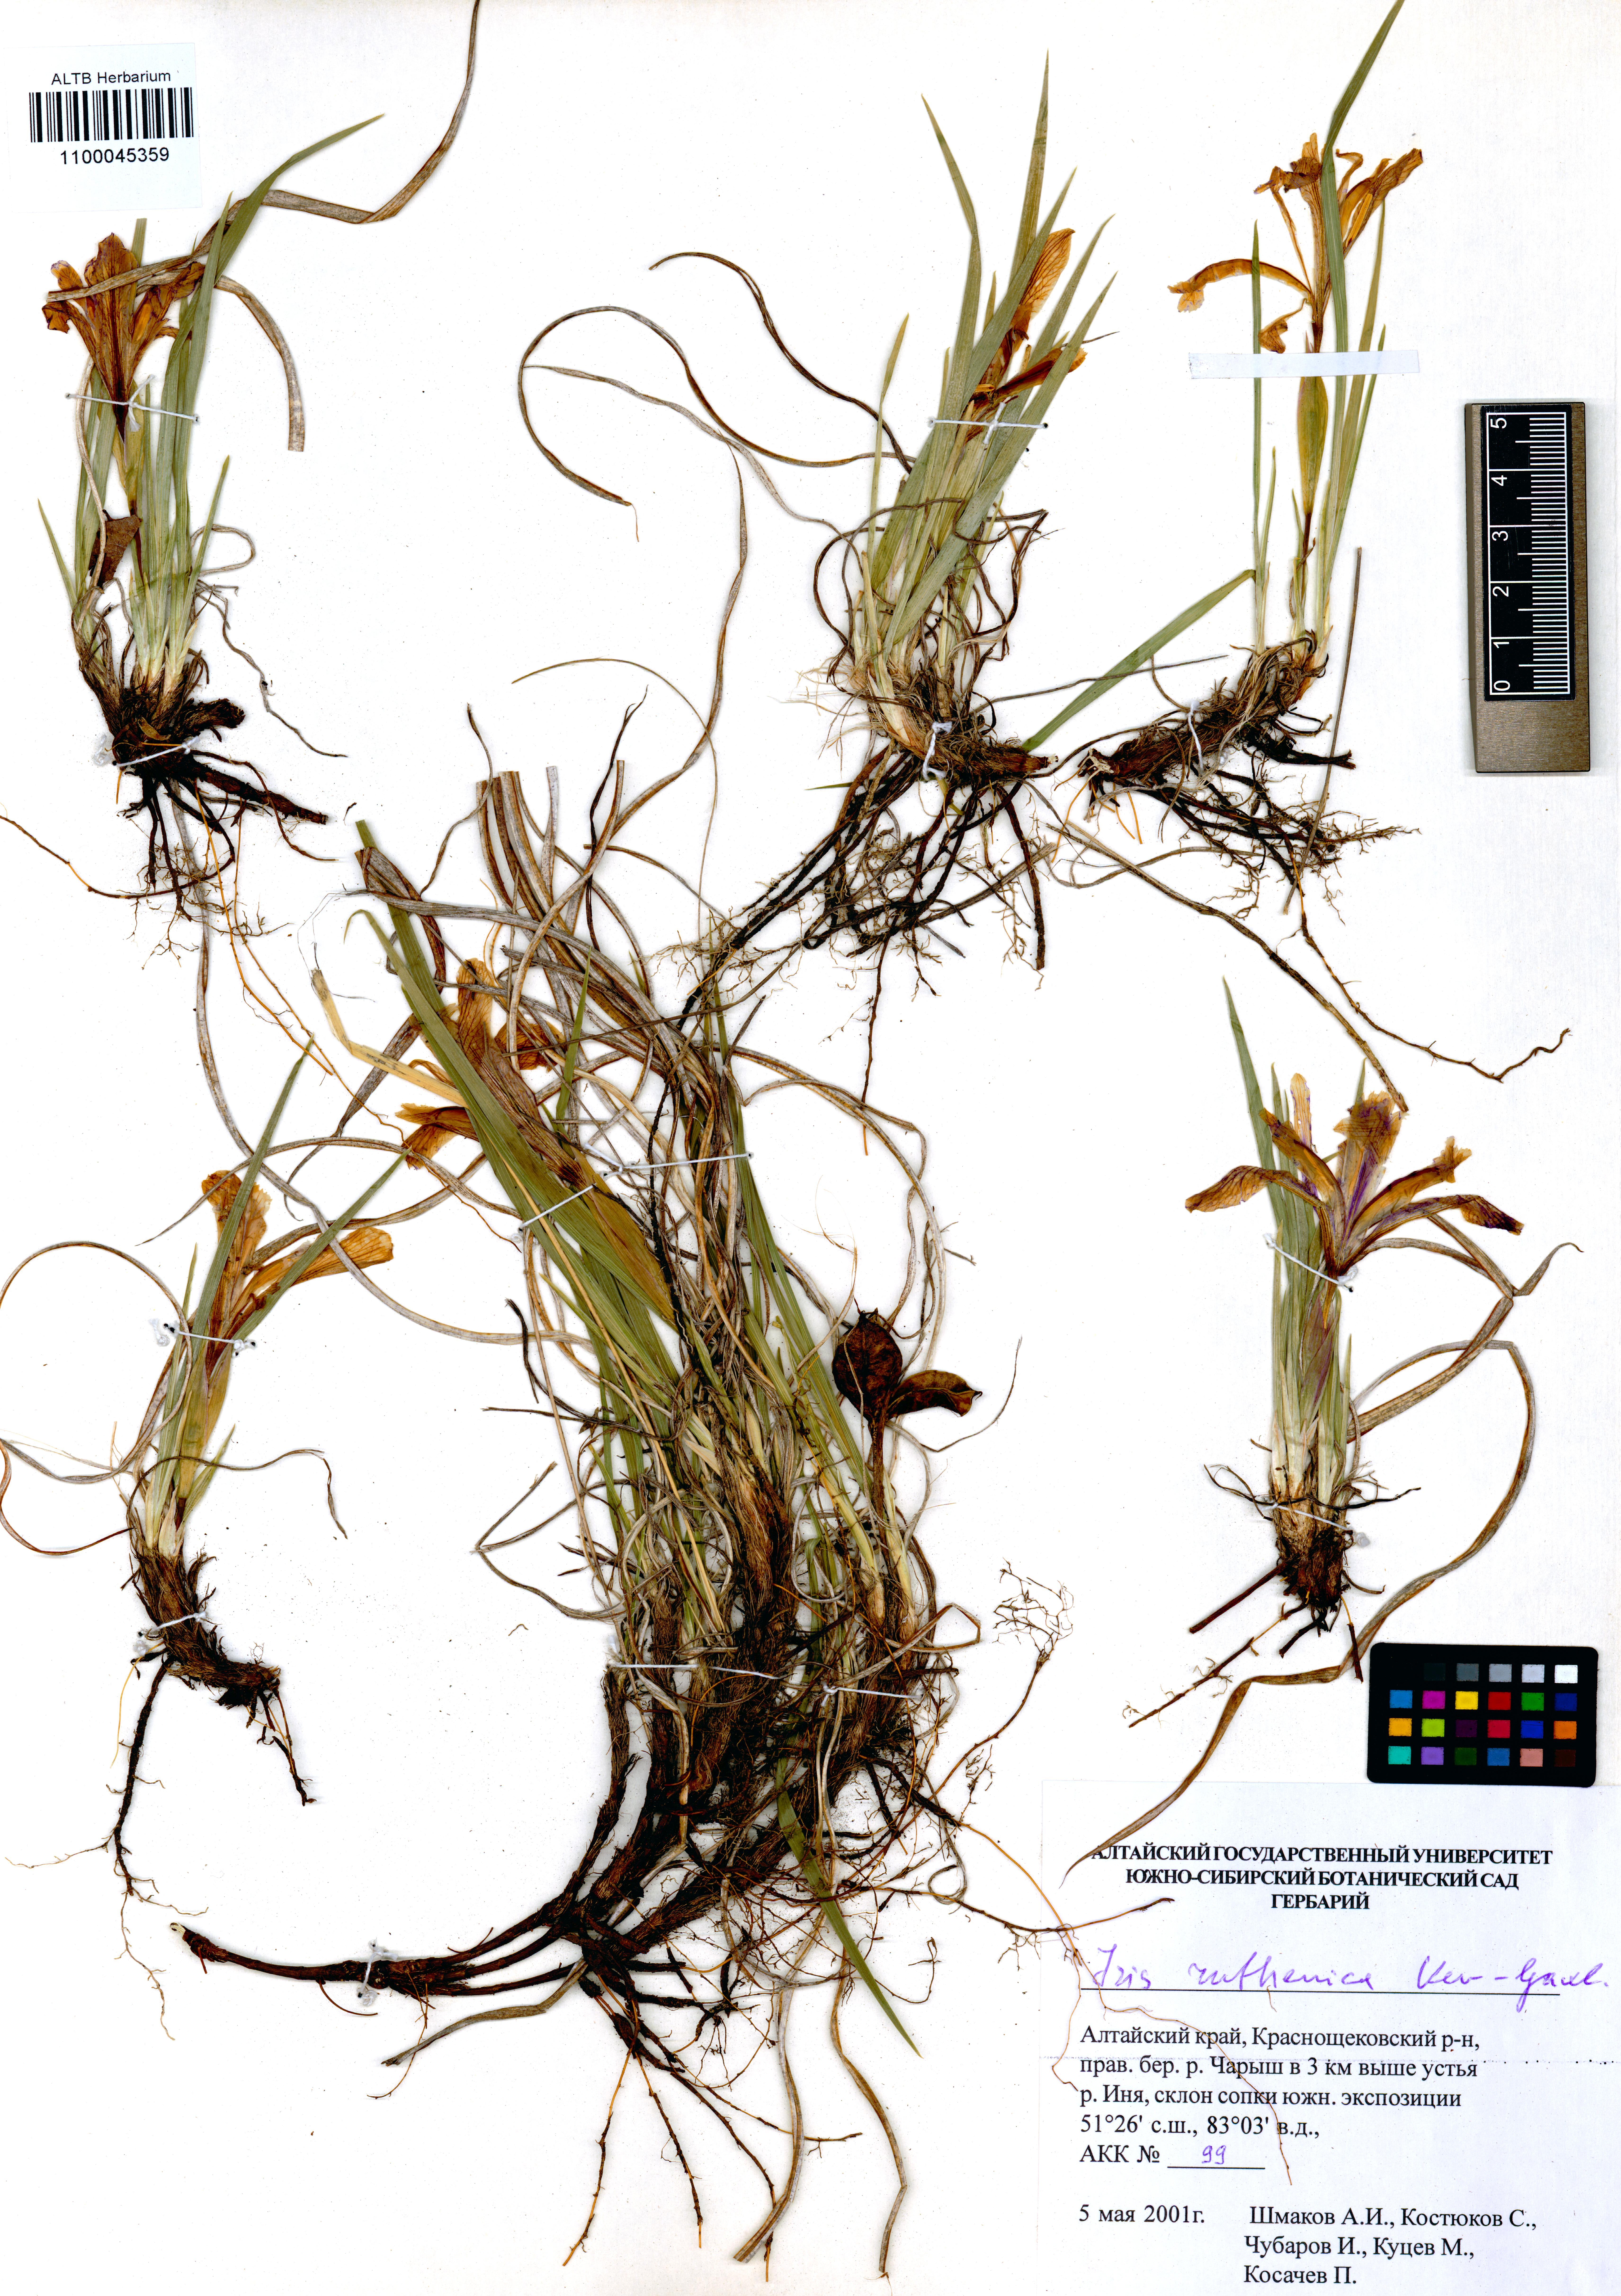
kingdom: Plantae
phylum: Tracheophyta
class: Liliopsida
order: Asparagales
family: Iridaceae
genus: Iris
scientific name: Iris ruthenica
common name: Purple-bract iris
